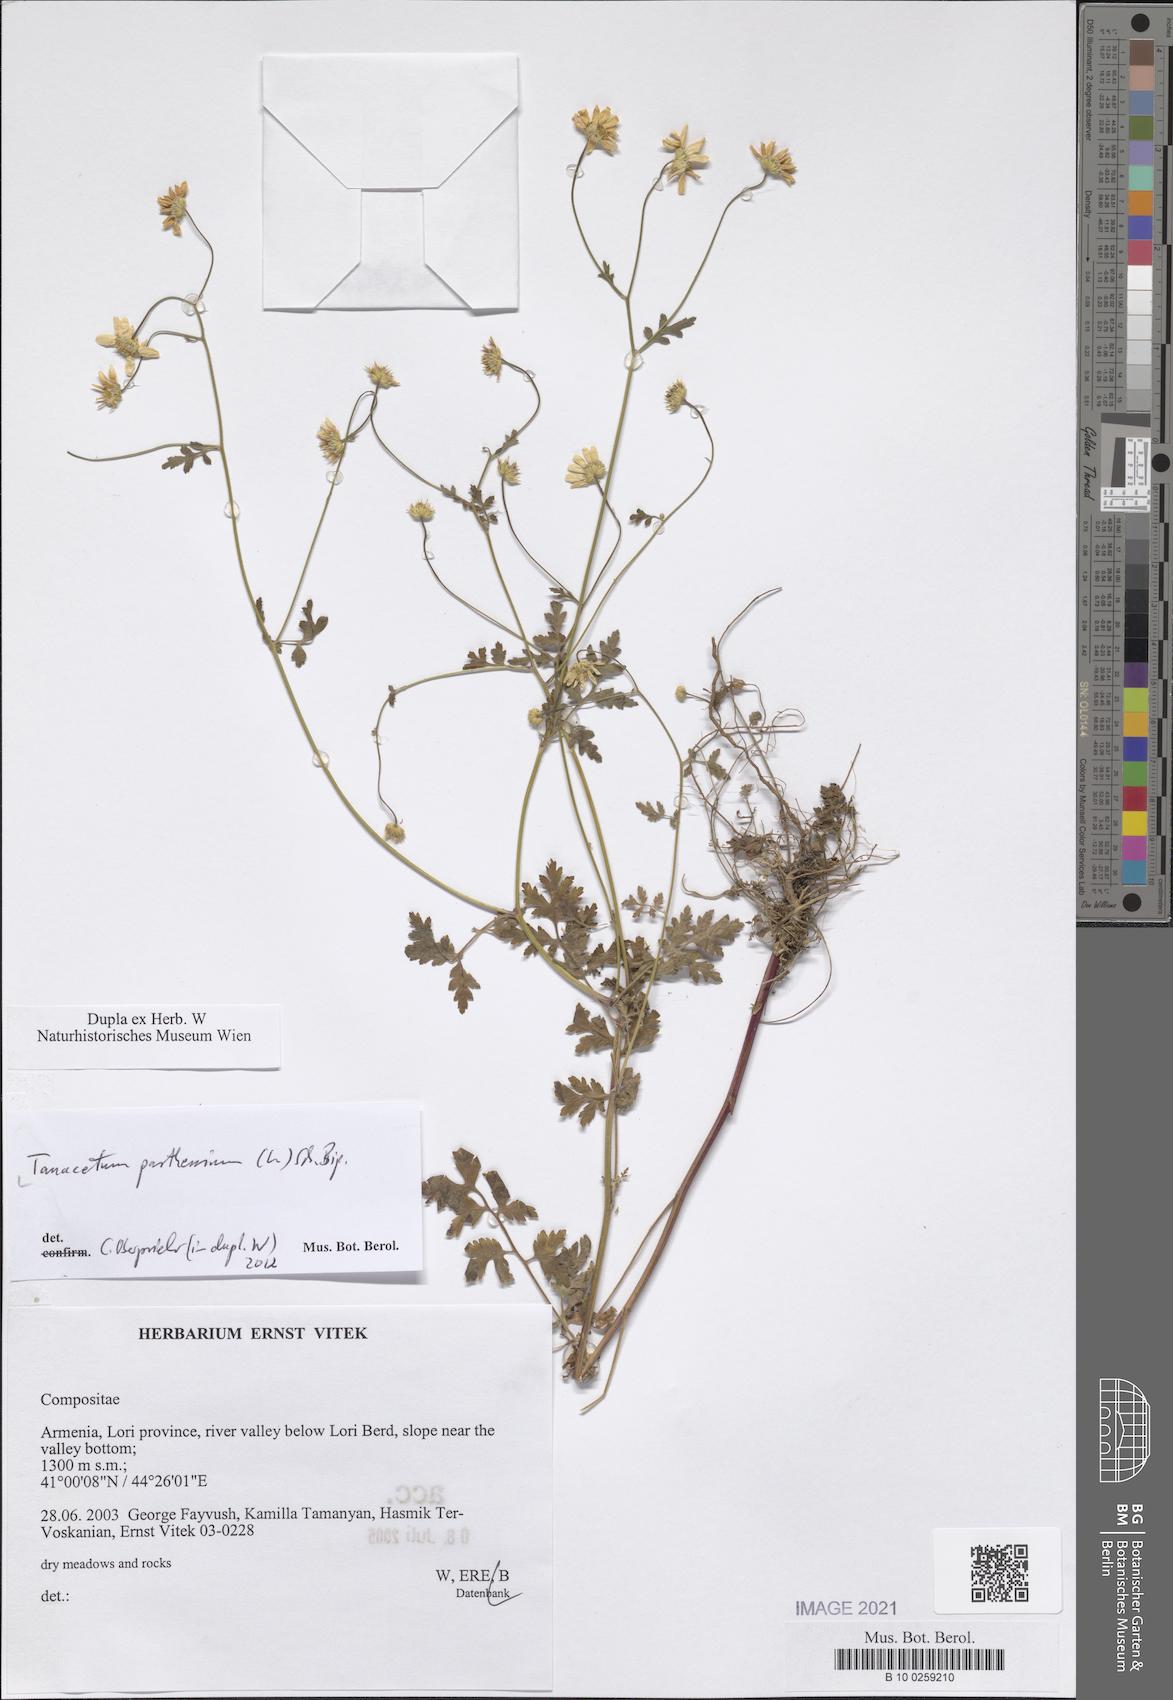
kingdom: Plantae
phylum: Tracheophyta
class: Magnoliopsida
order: Asterales
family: Asteraceae
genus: Tanacetum
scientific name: Tanacetum parthenium
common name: Feverfew
